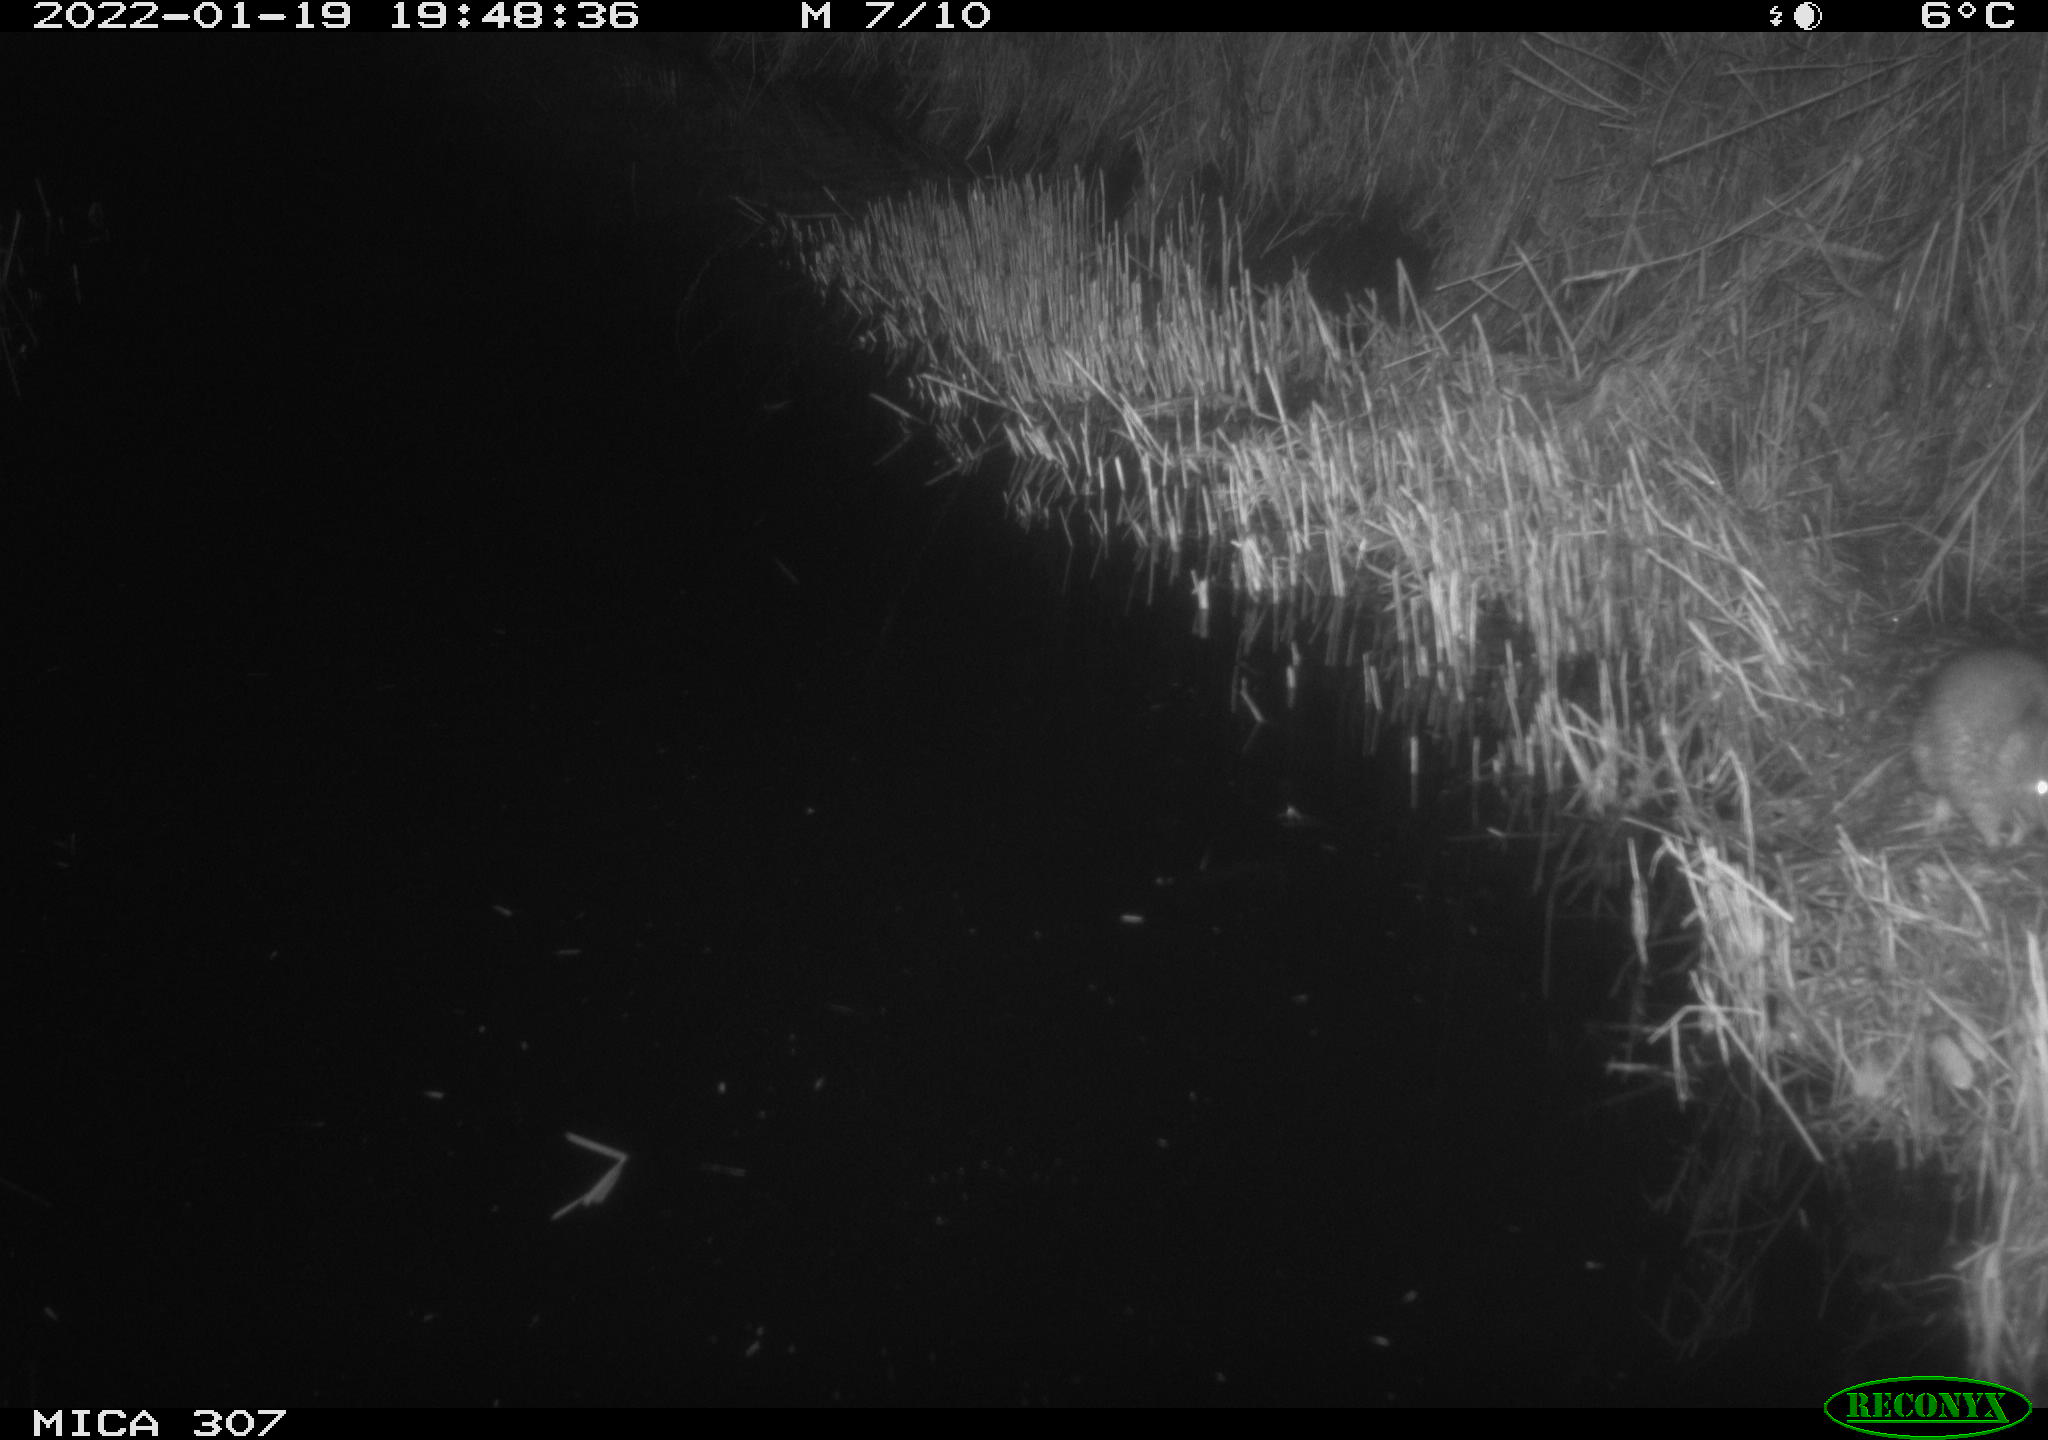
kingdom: Animalia
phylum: Chordata
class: Mammalia
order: Rodentia
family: Muridae
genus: Rattus
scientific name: Rattus norvegicus
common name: Brown rat
